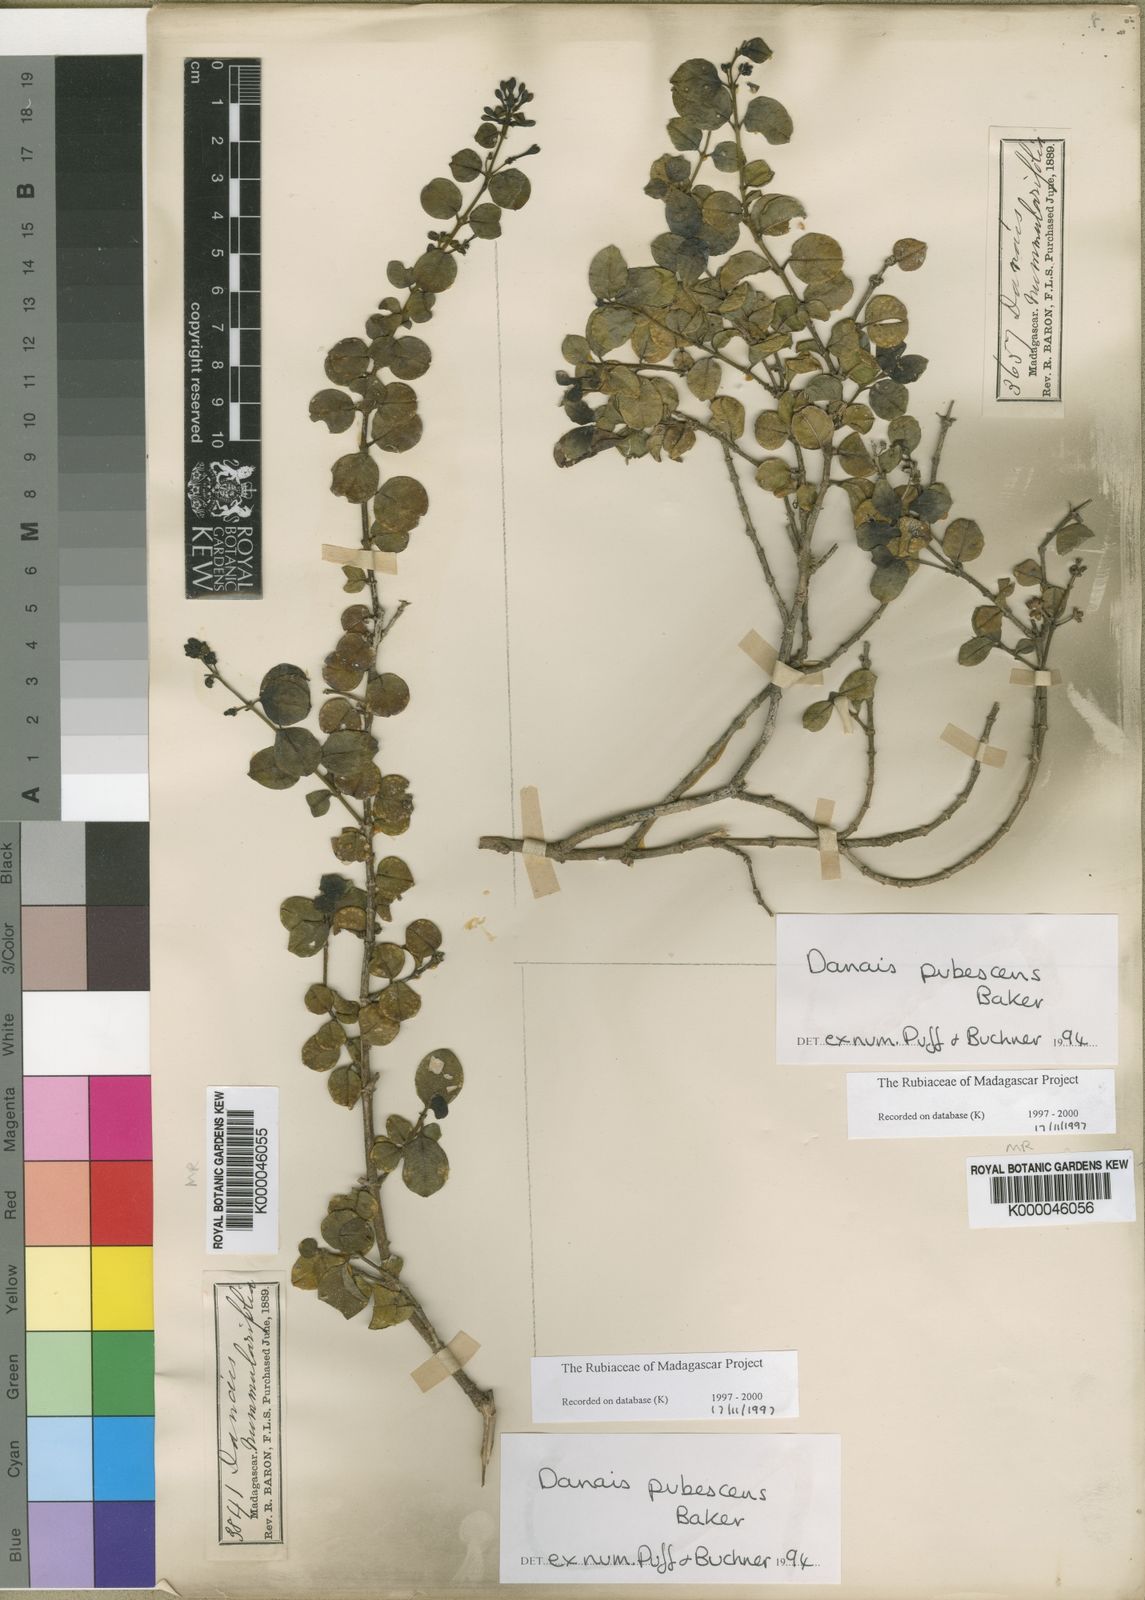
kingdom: Plantae
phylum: Tracheophyta
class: Magnoliopsida
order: Gentianales
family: Rubiaceae
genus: Danais
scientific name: Danais pubescens
